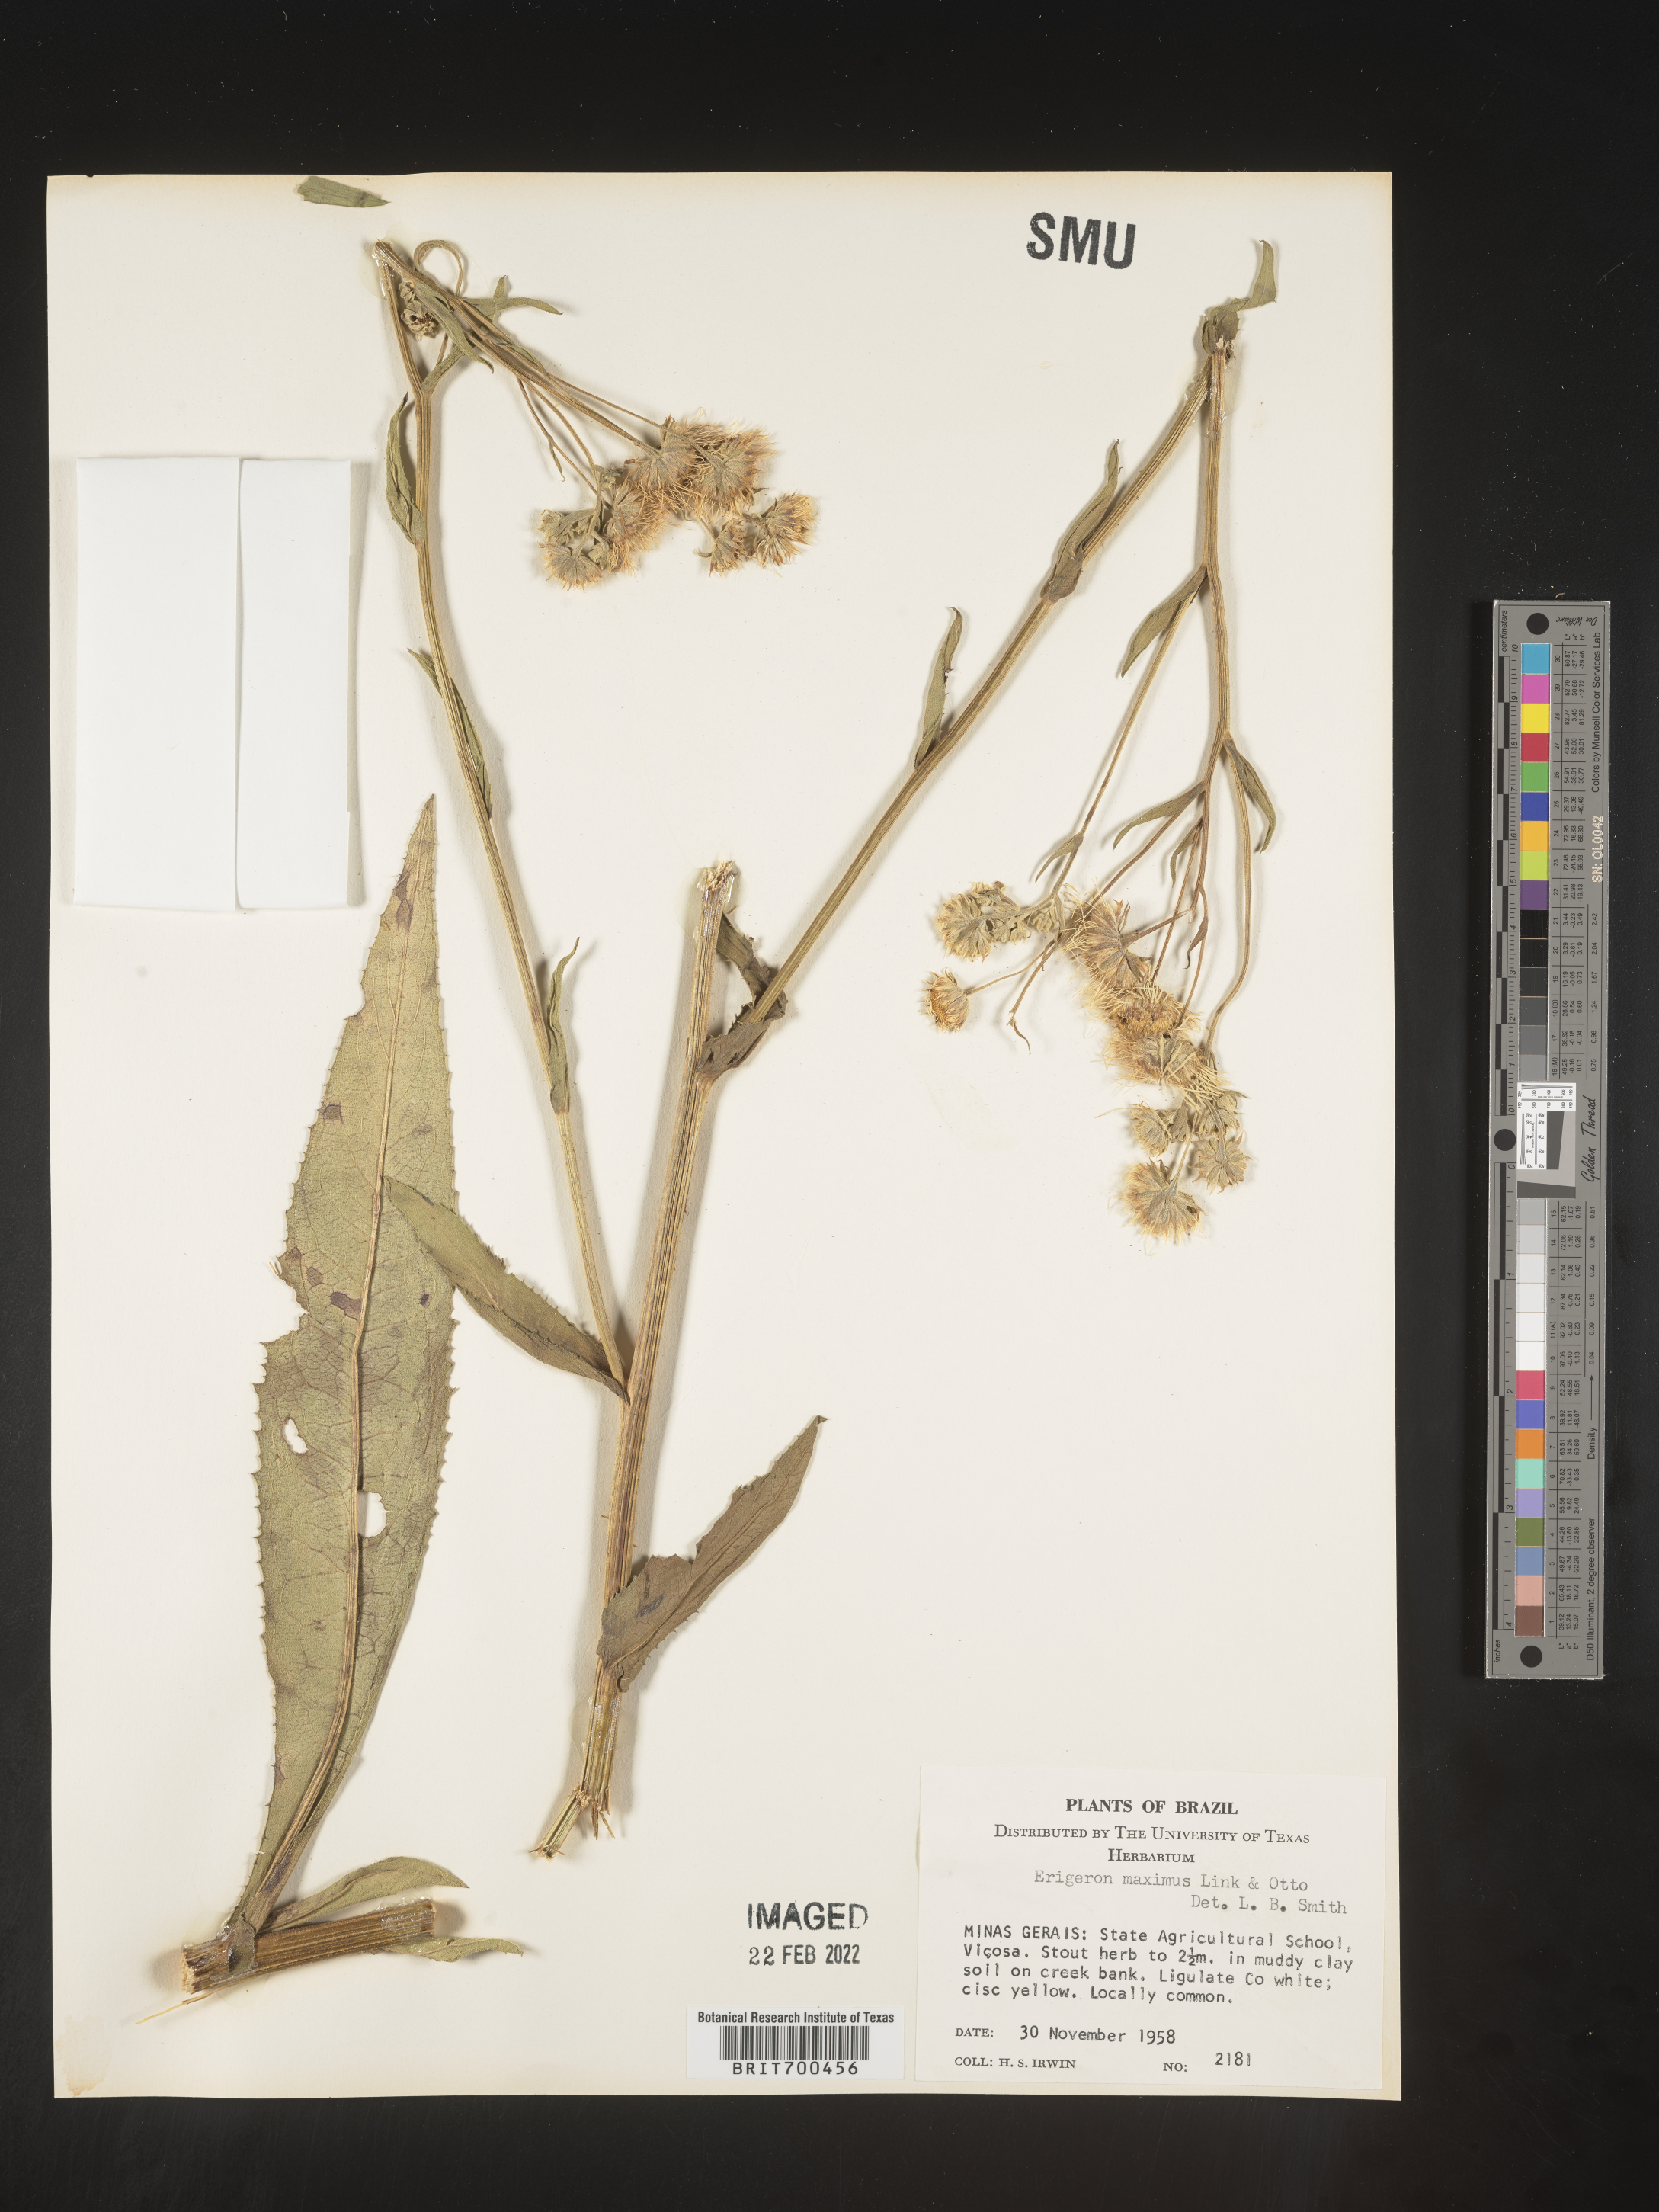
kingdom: Plantae
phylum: Tracheophyta
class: Magnoliopsida
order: Asterales
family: Asteraceae
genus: Erigeron
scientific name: Erigeron
